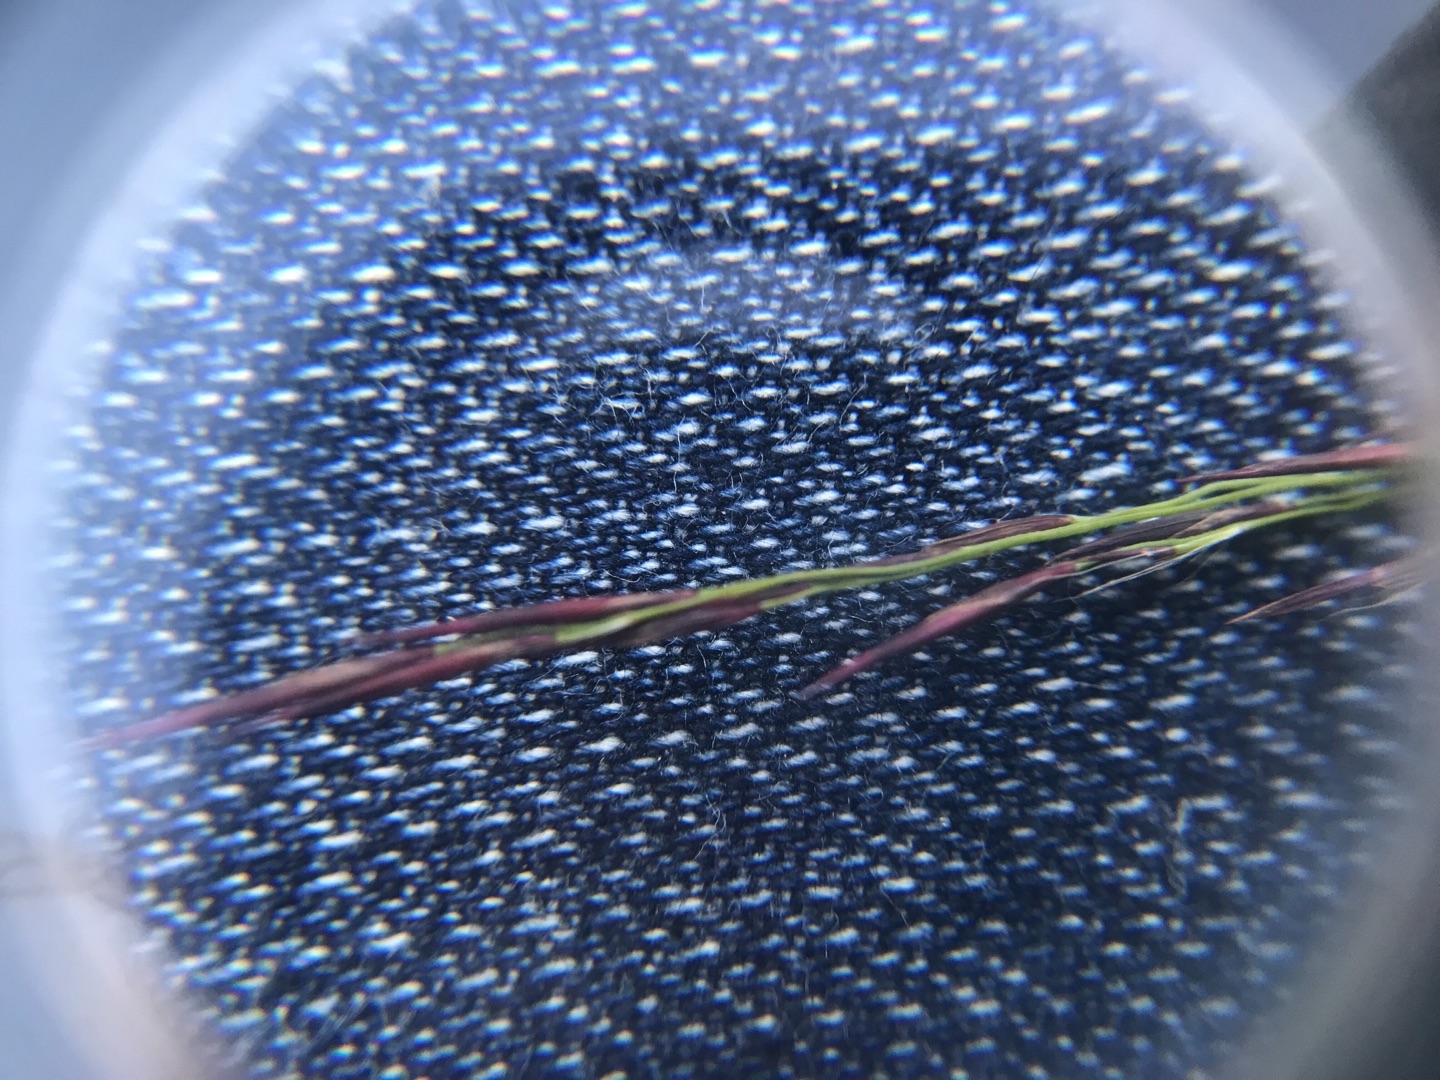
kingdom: Plantae
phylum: Tracheophyta
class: Liliopsida
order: Poales
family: Poaceae
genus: Phragmites
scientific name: Phragmites australis
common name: Tagrør
